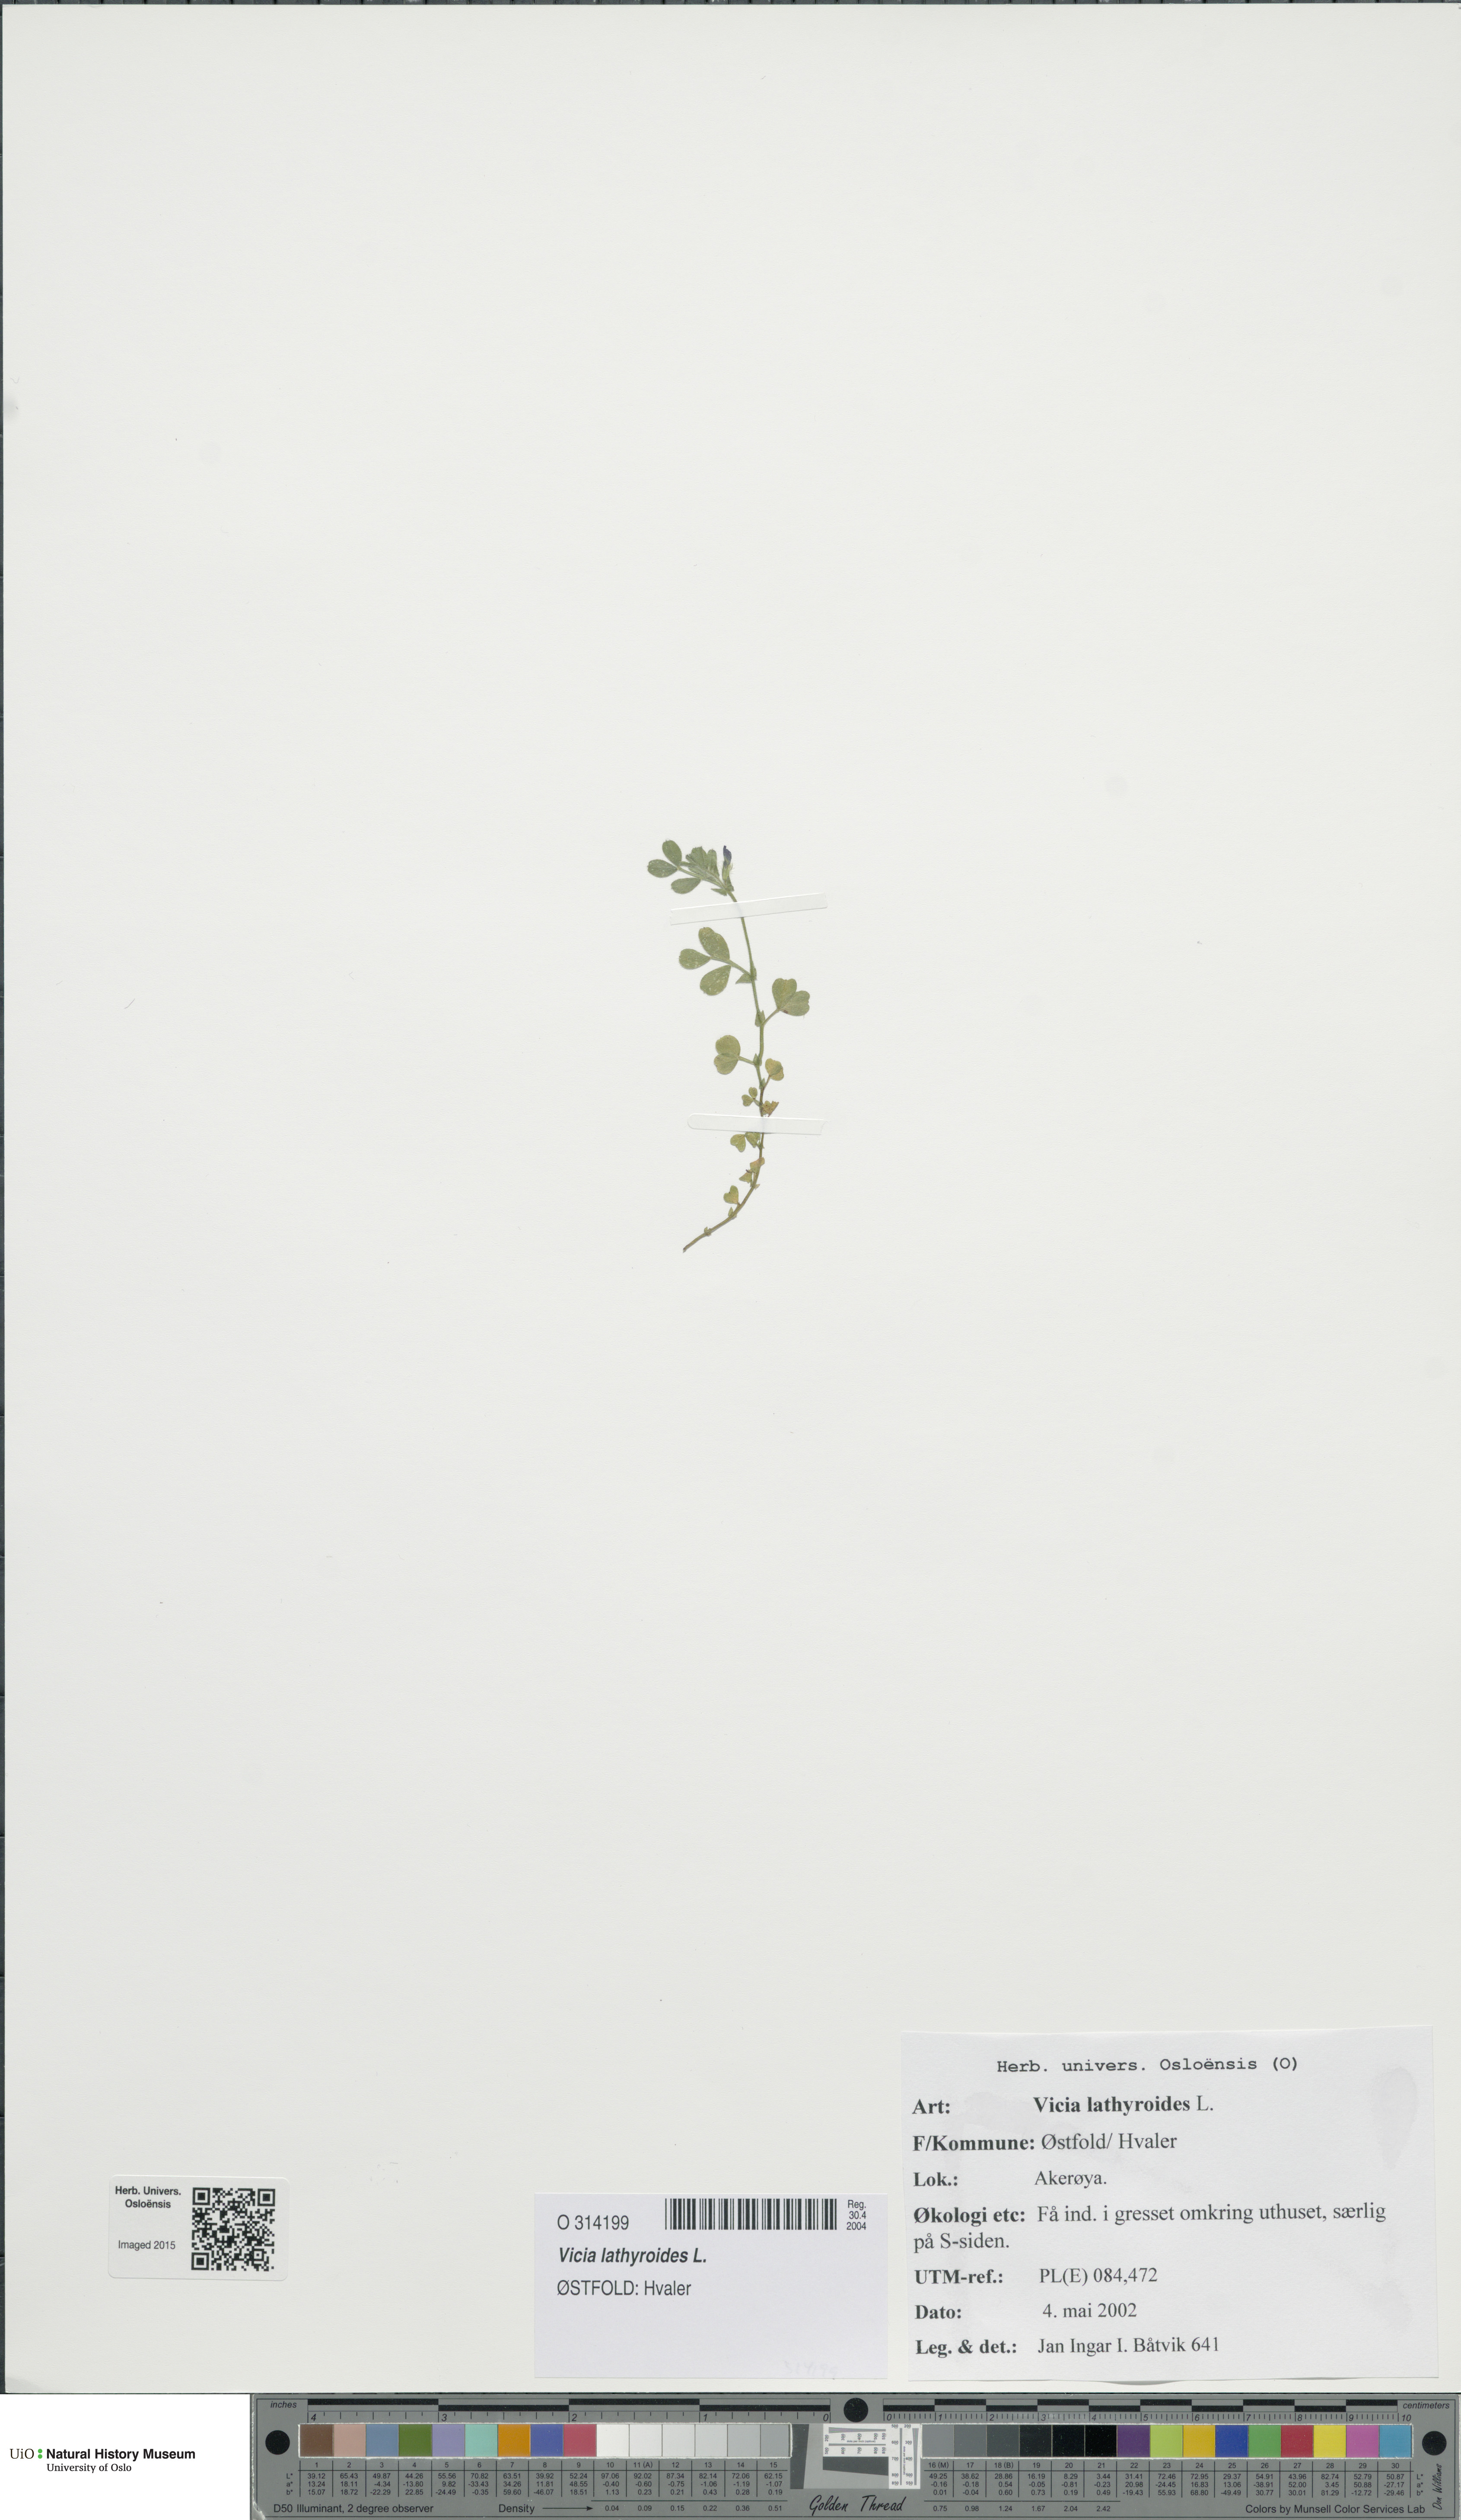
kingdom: Plantae
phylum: Tracheophyta
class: Magnoliopsida
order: Fabales
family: Fabaceae
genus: Vicia
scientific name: Vicia lathyroides
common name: Spring vetch
